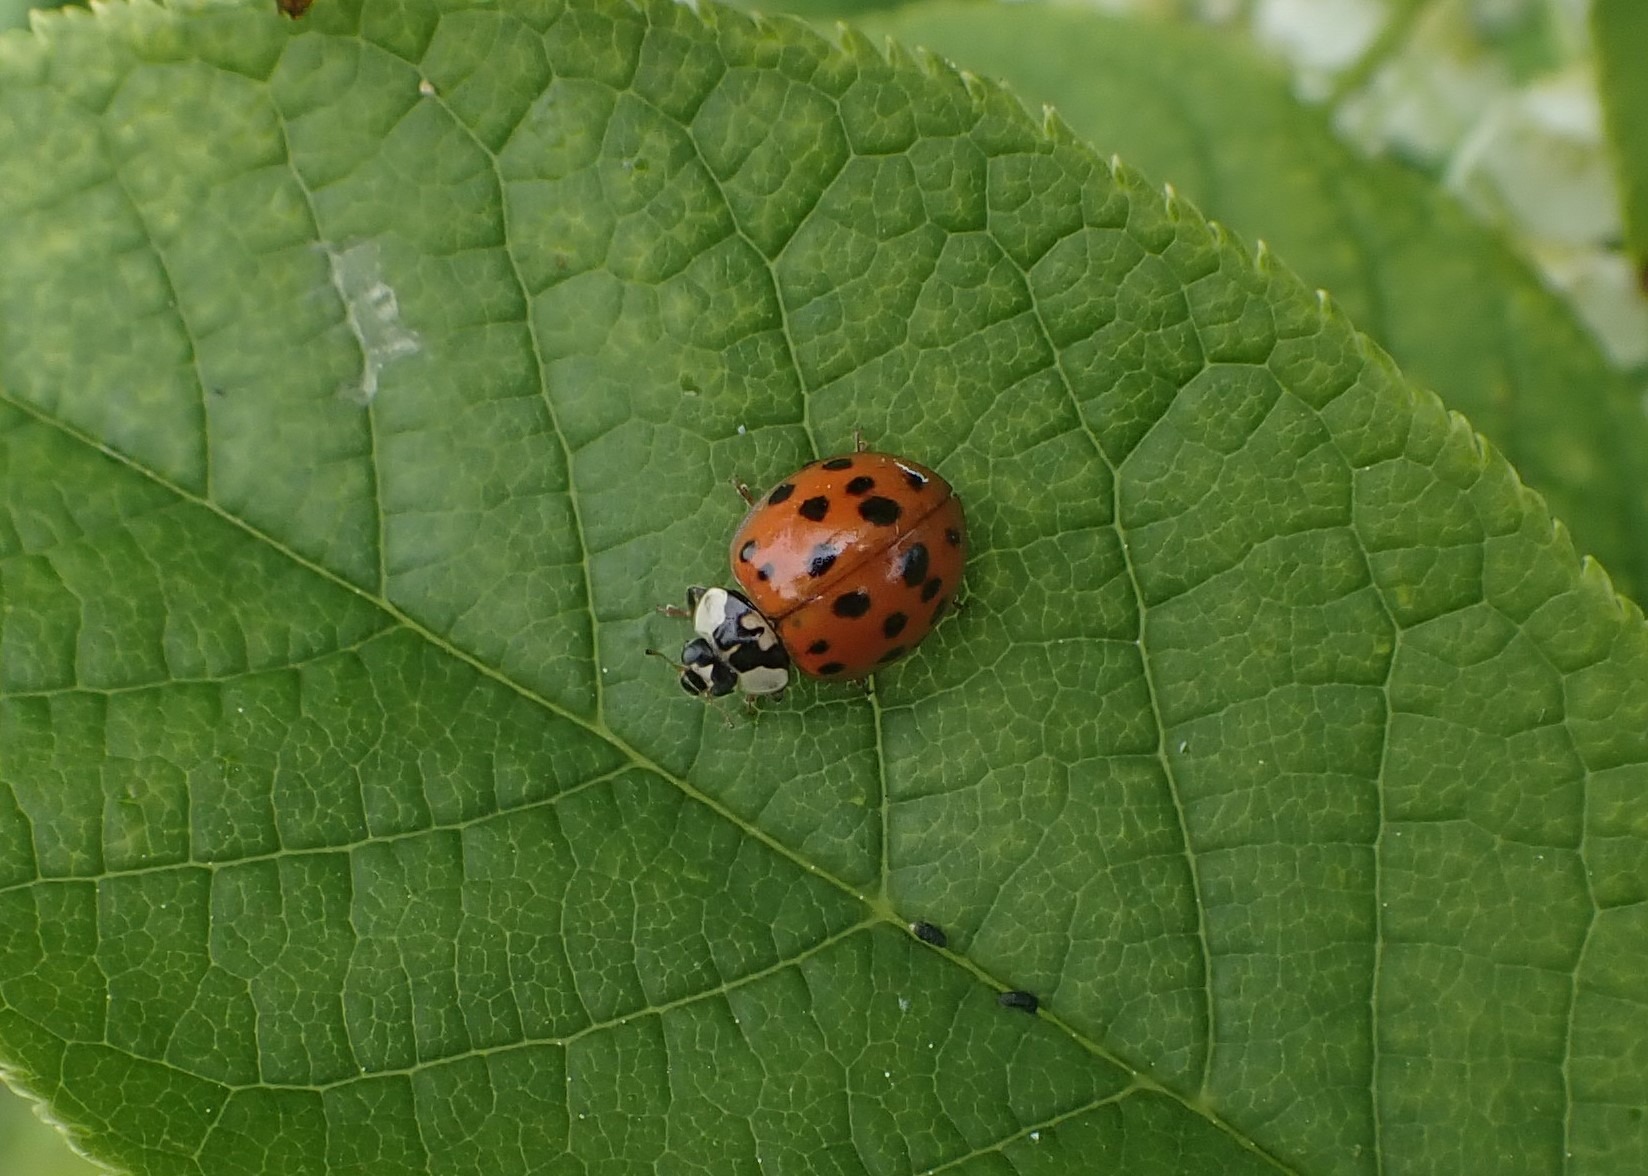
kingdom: Animalia
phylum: Arthropoda
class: Insecta
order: Coleoptera
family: Coccinellidae
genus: Harmonia
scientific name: Harmonia axyridis
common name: Harlekinmariehøne
